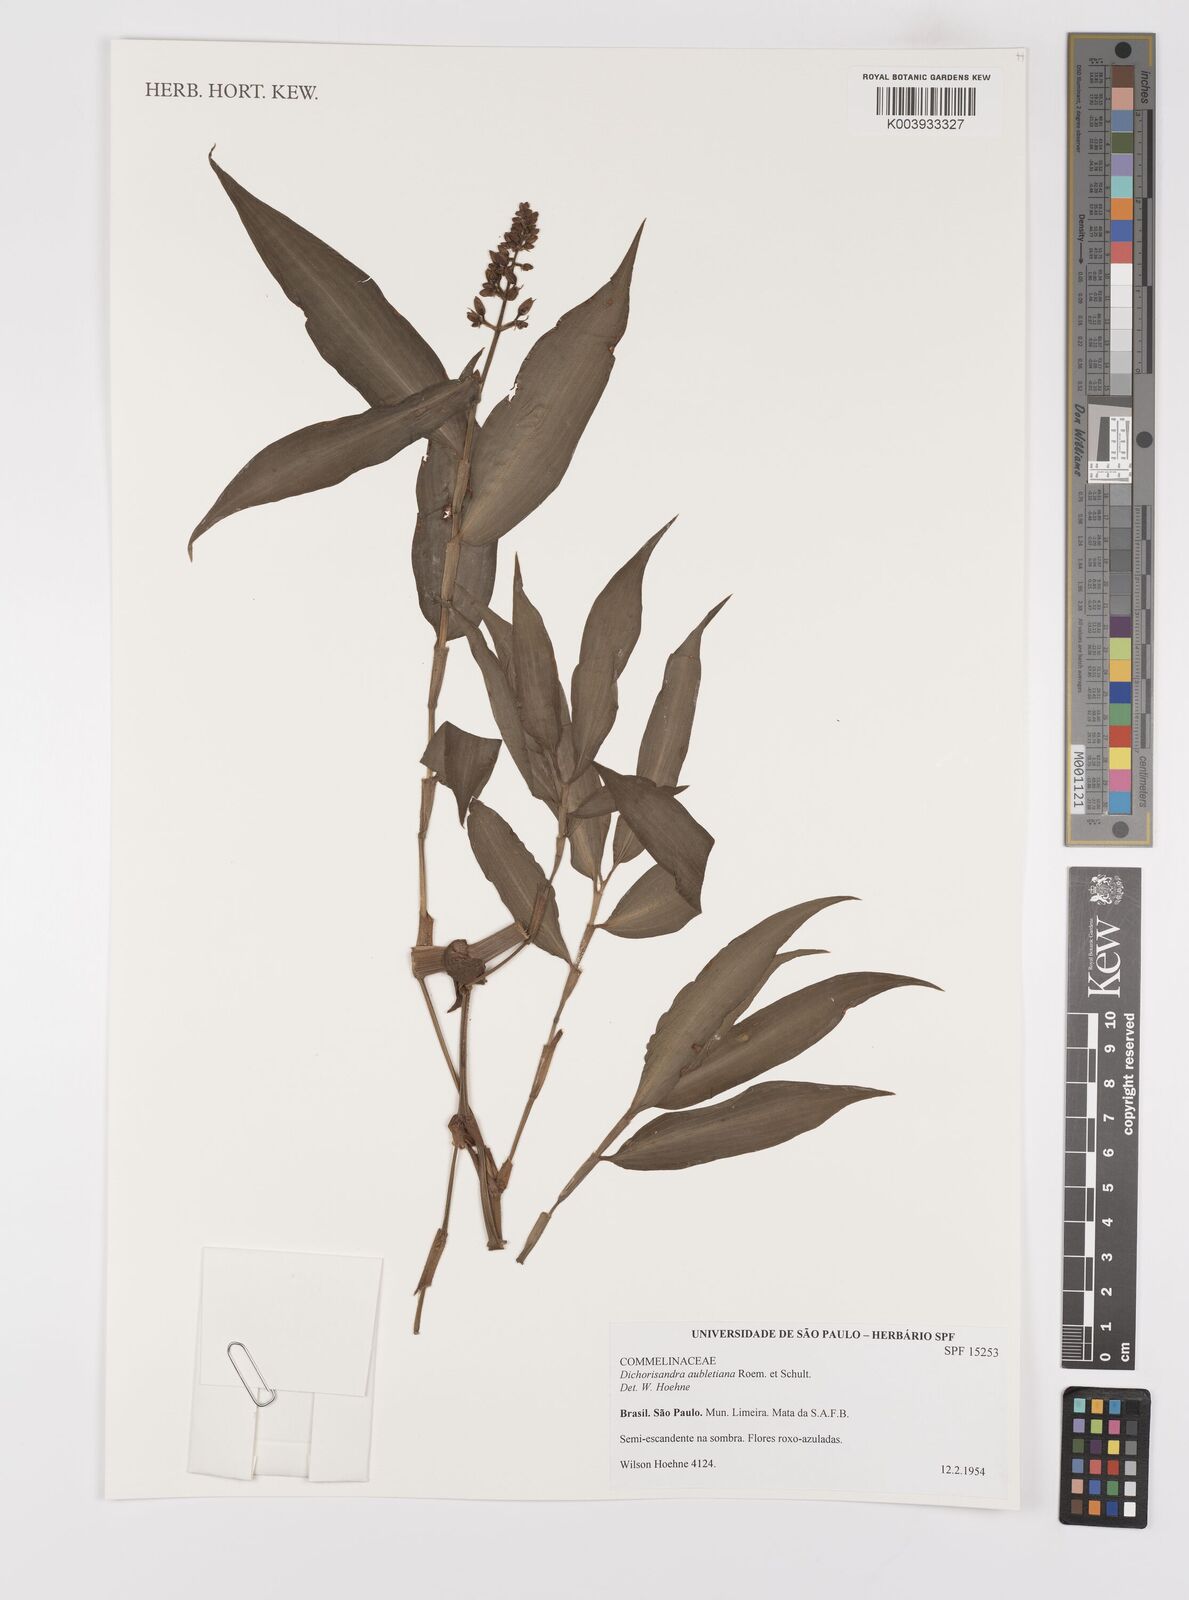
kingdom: Plantae
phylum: Tracheophyta
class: Liliopsida
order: Commelinales
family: Commelinaceae
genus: Dichorisandra
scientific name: Dichorisandra hexandra
